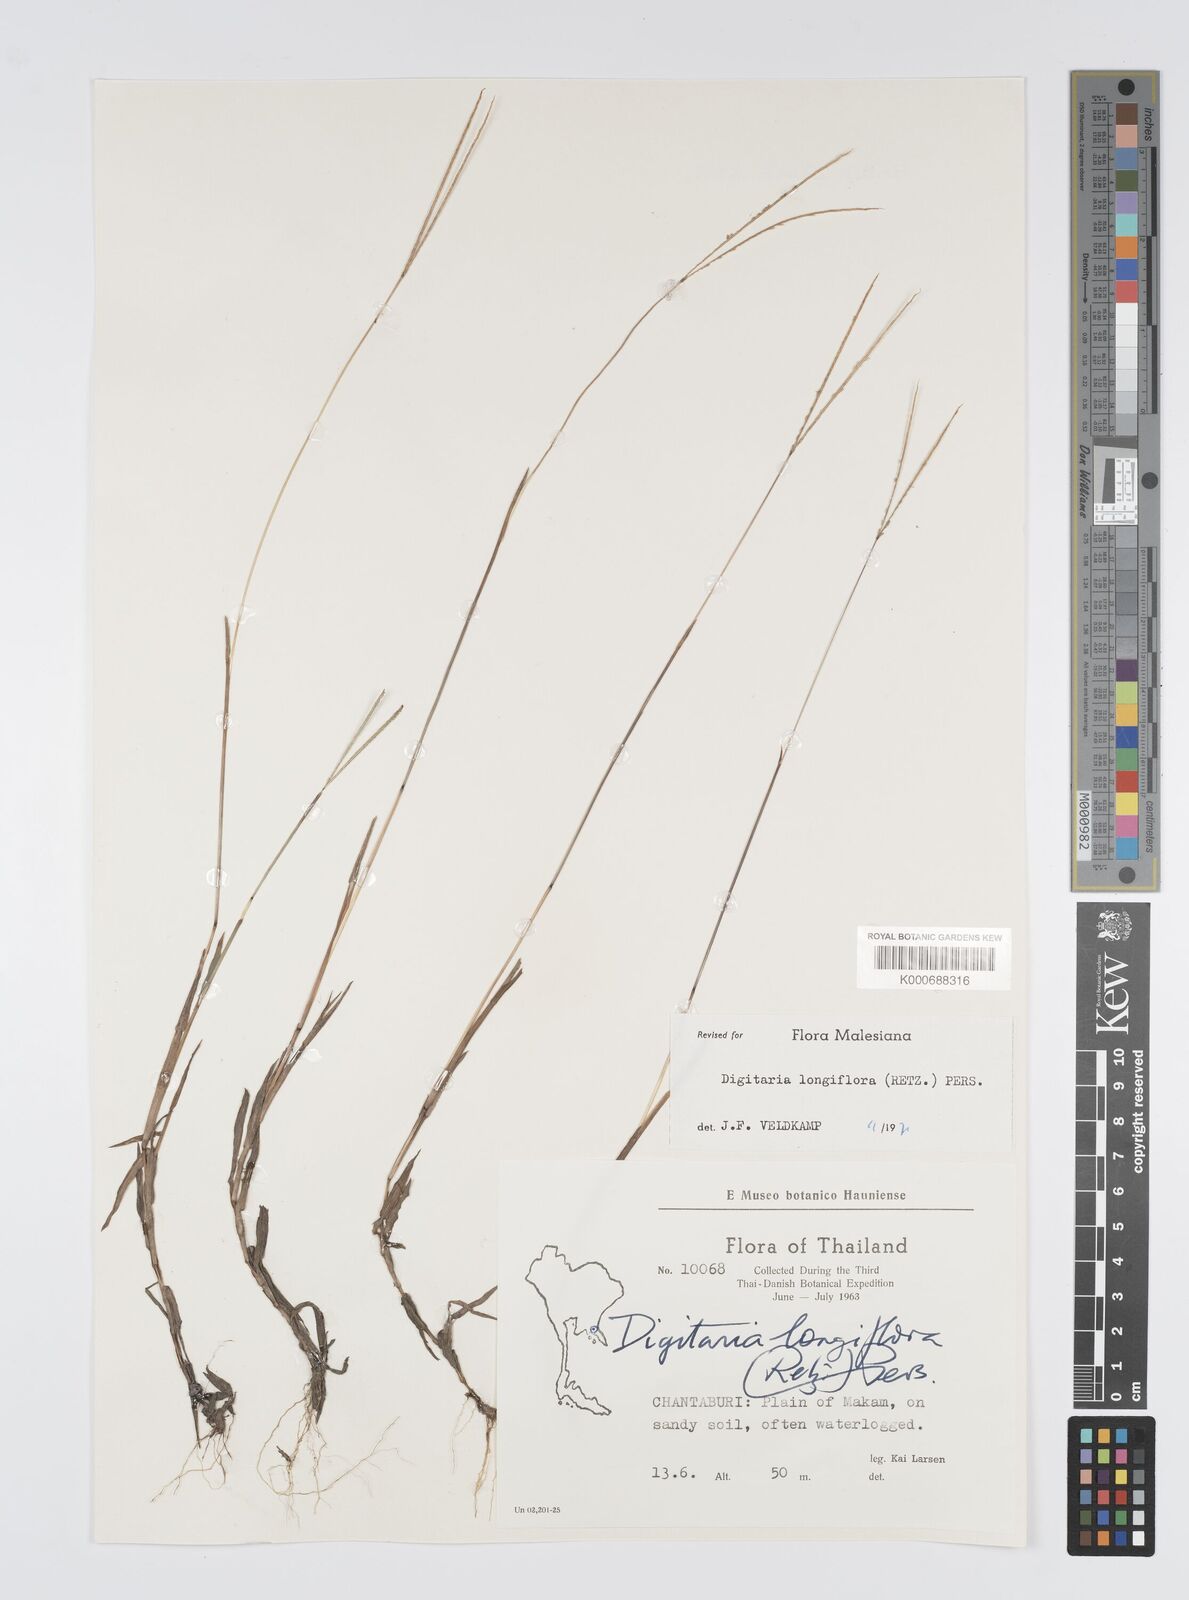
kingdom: Plantae
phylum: Tracheophyta
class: Liliopsida
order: Poales
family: Poaceae
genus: Digitaria
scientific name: Digitaria longiflora
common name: Wire crabgrass
